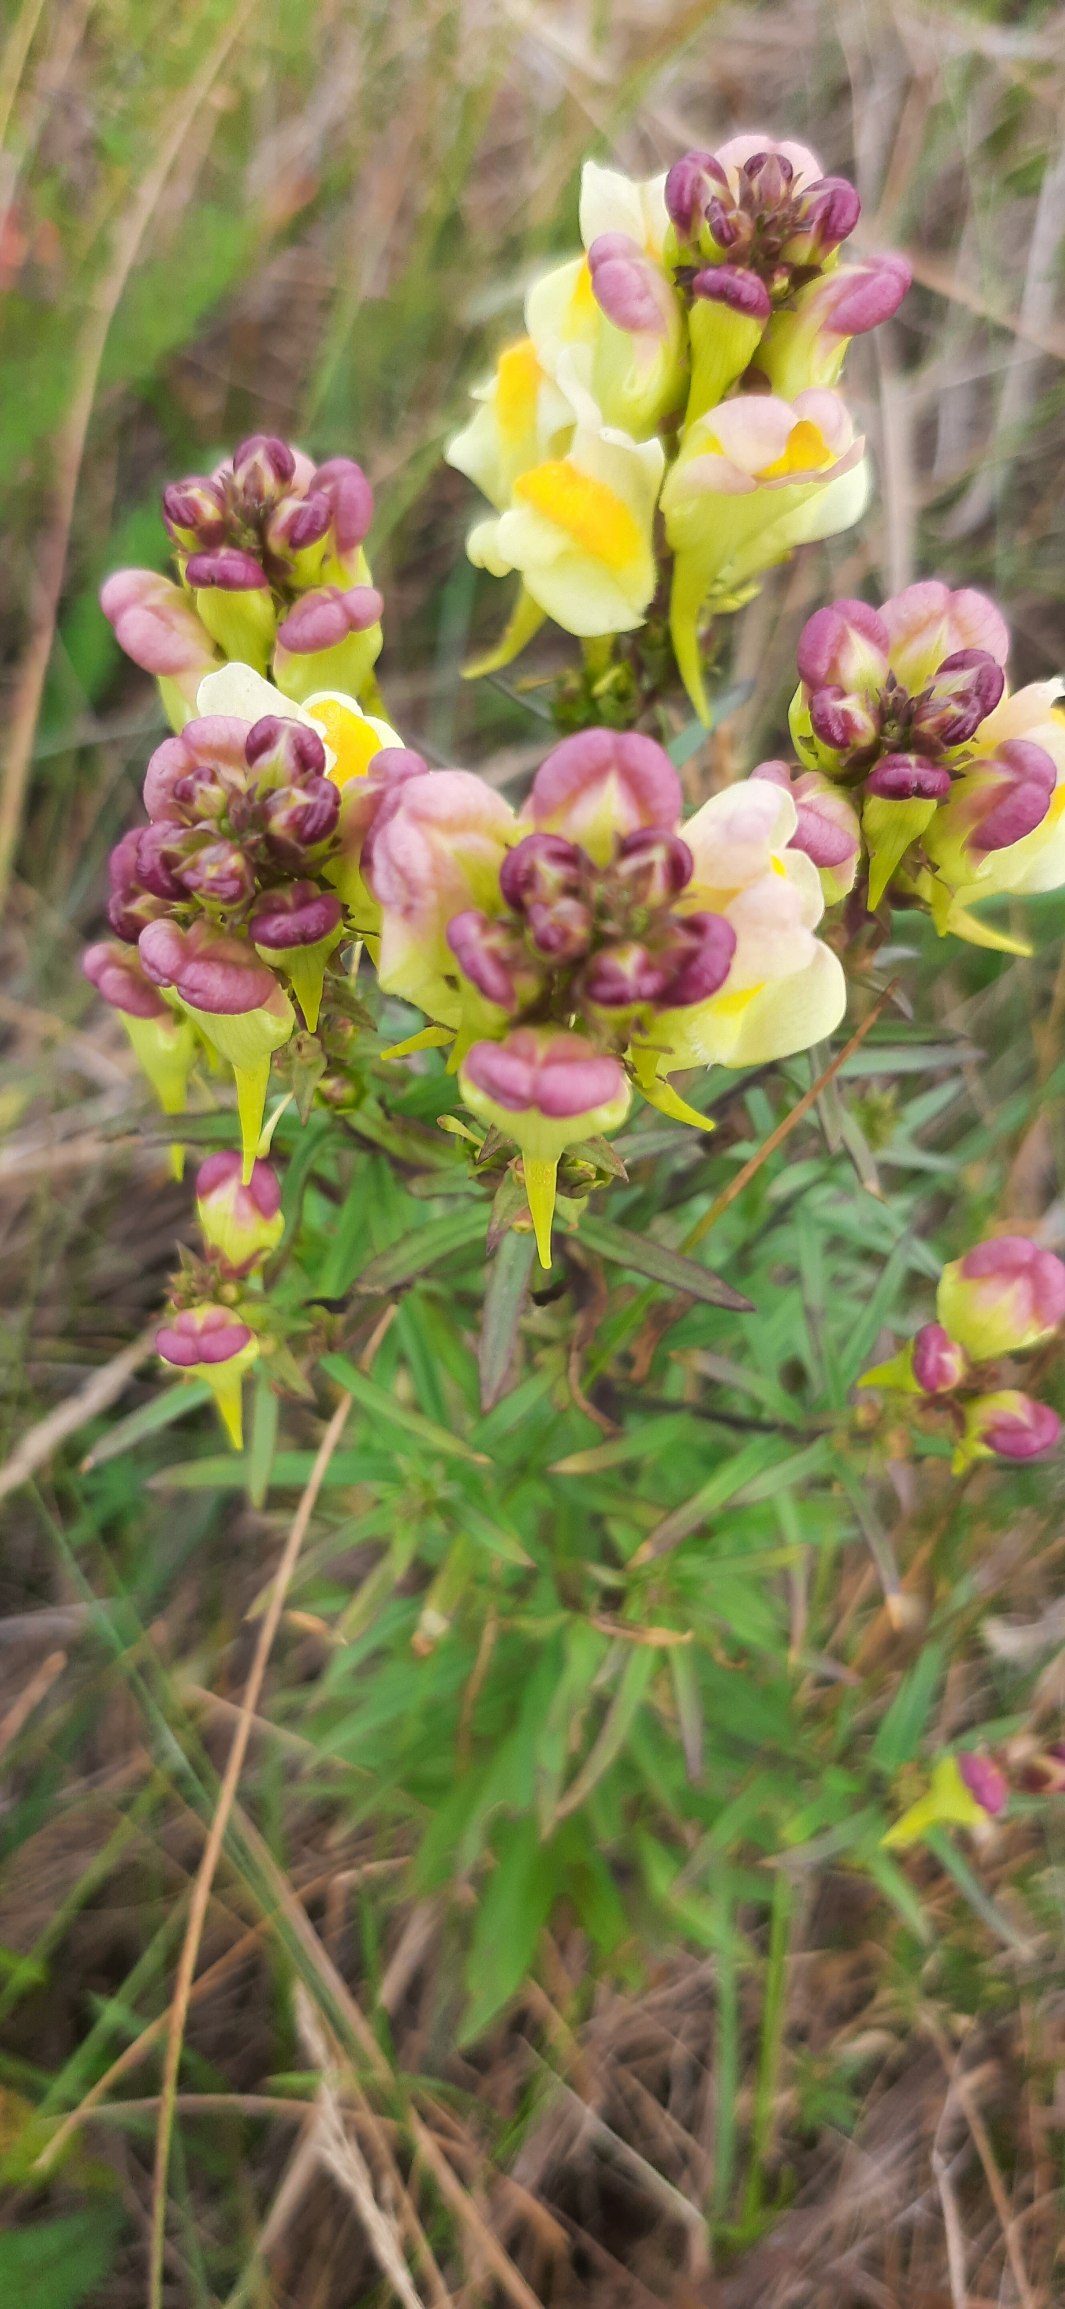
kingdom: Plantae
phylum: Tracheophyta
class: Magnoliopsida
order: Lamiales
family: Plantaginaceae
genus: Linaria
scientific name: Linaria vulgaris
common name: Almindelig torskemund
